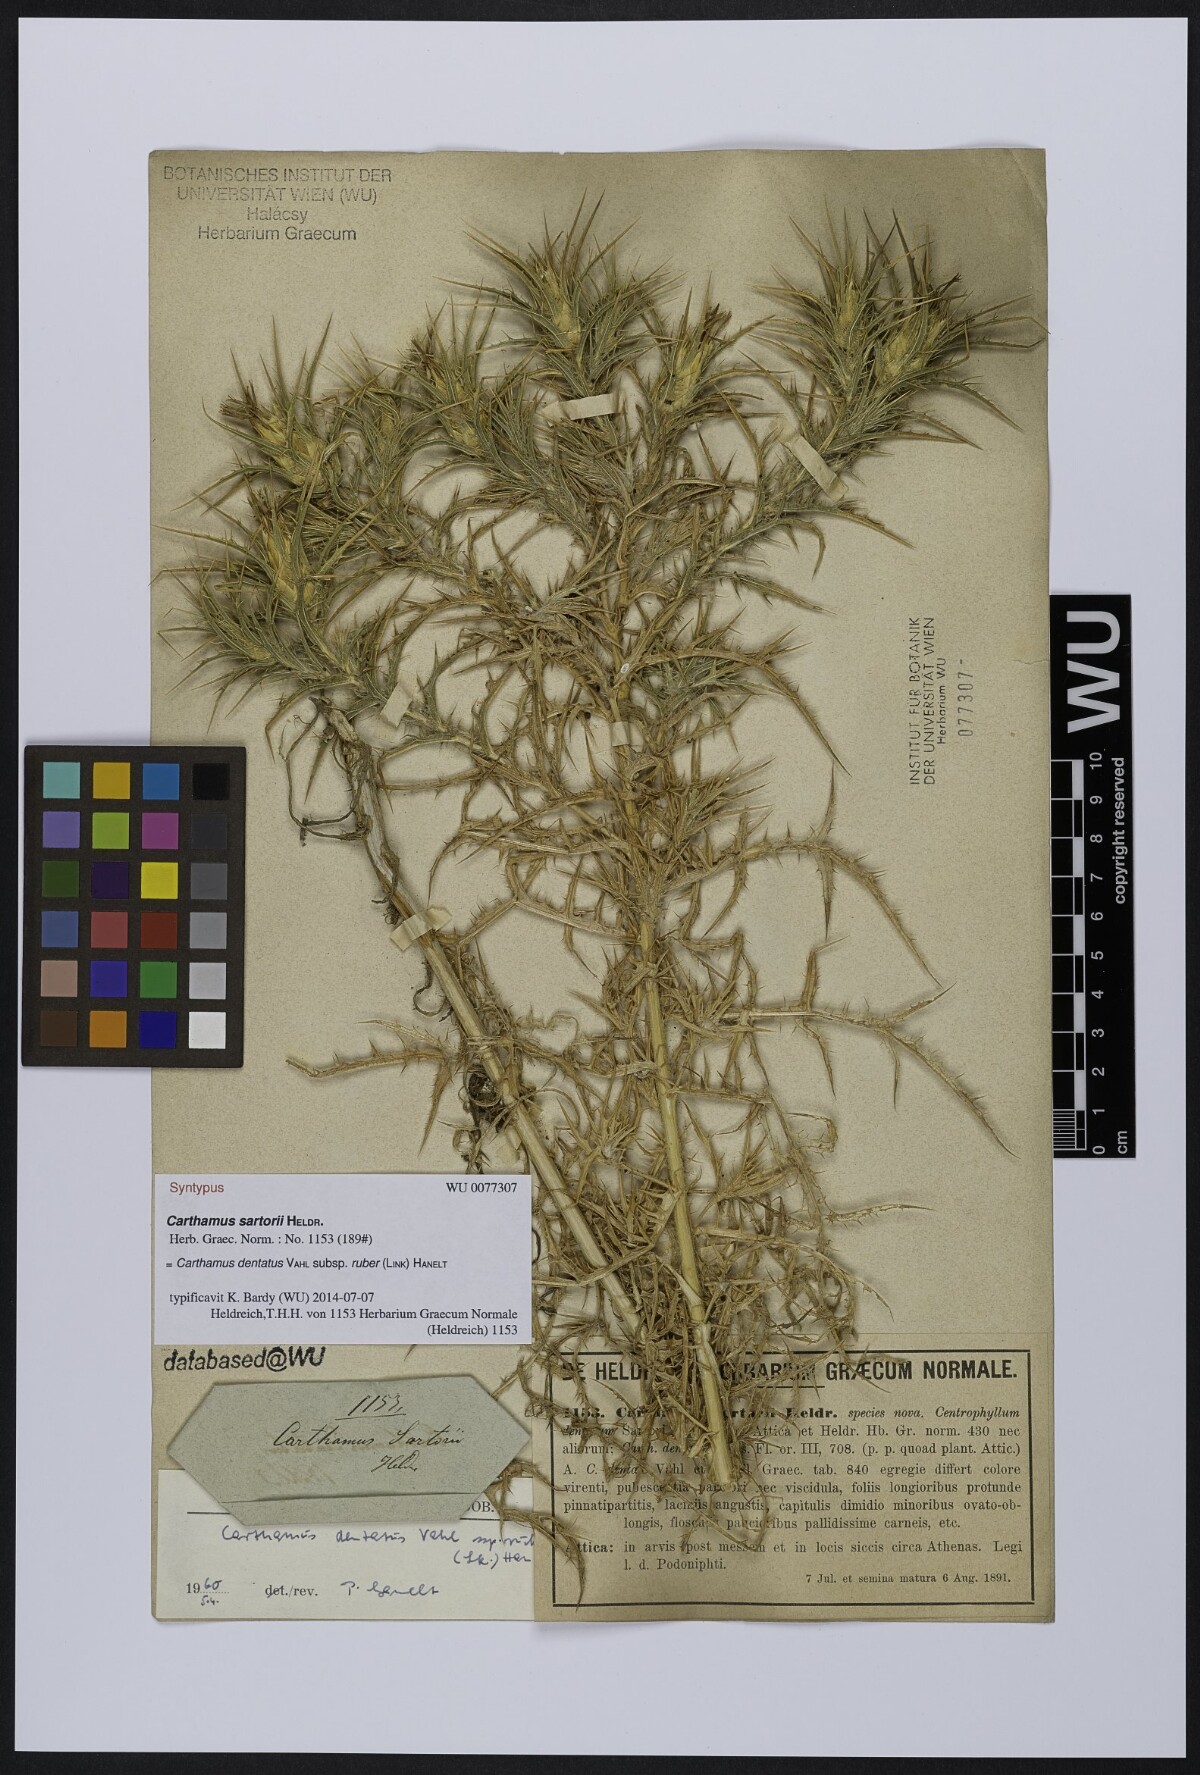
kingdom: Plantae
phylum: Tracheophyta
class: Magnoliopsida
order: Asterales
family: Asteraceae
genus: Carthamus
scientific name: Carthamus dentatus
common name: Toothed thistle
